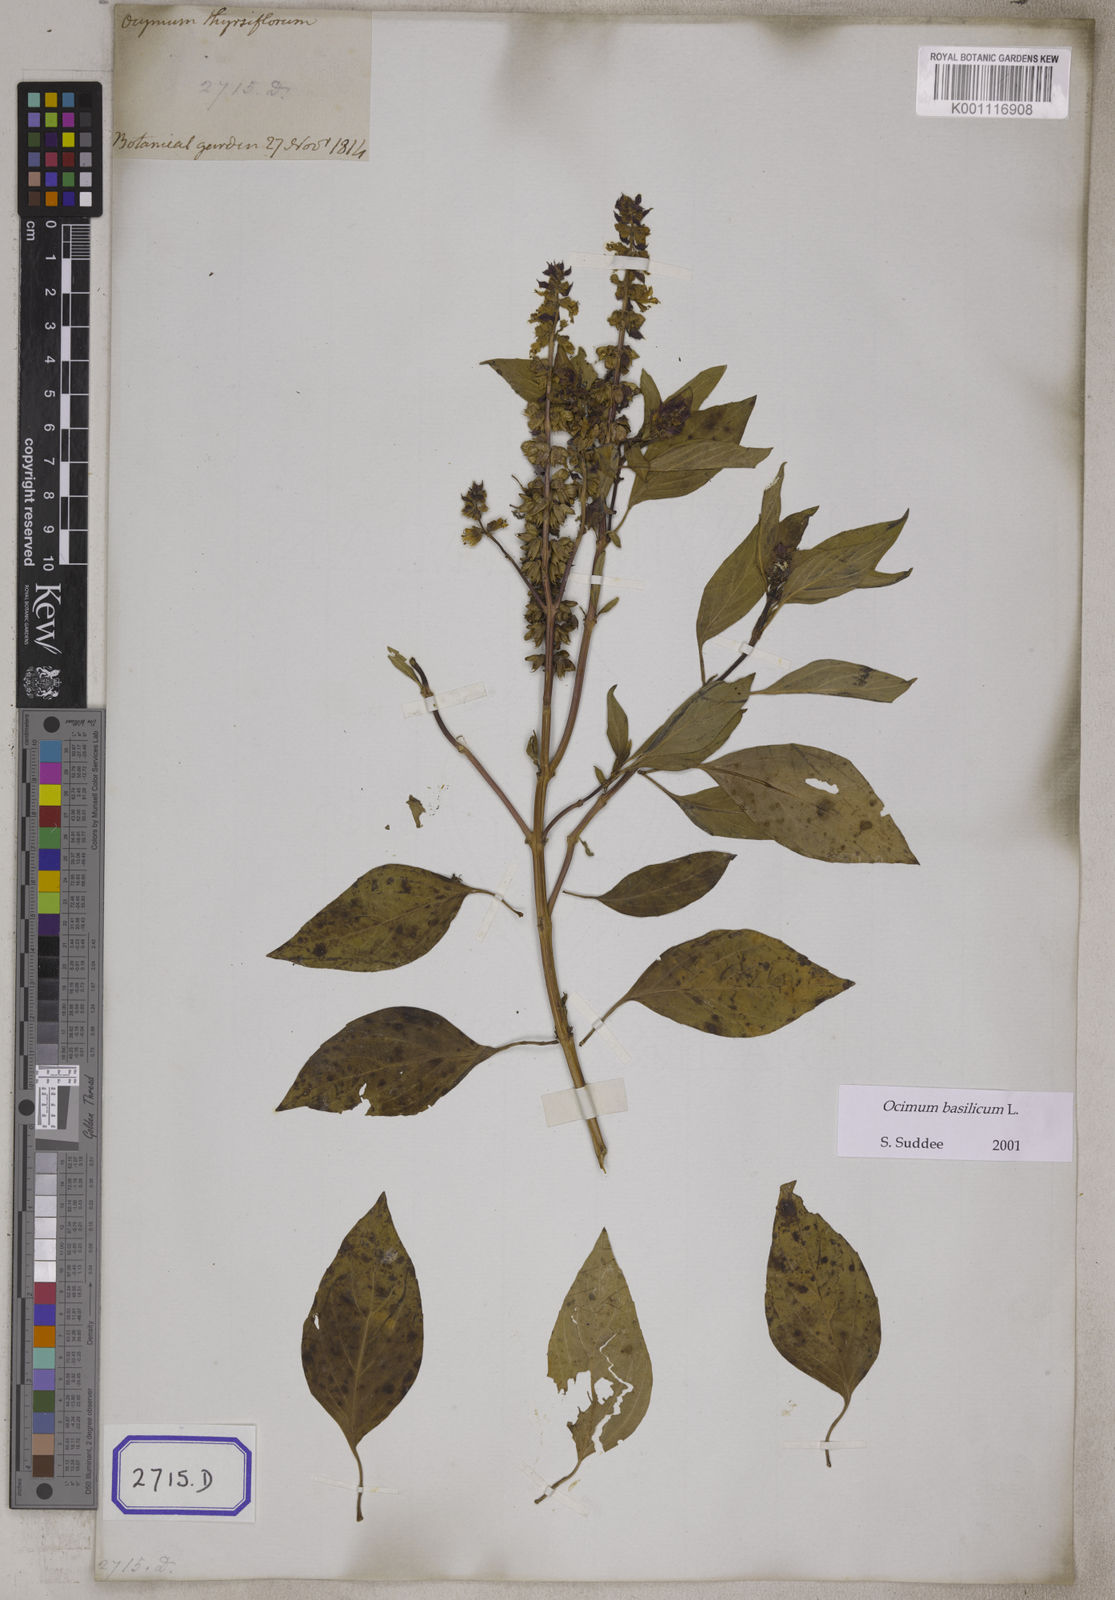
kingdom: Plantae
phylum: Tracheophyta
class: Magnoliopsida
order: Lamiales
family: Lamiaceae
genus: Ocimum
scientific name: Ocimum basilicum
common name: Sweet basil
